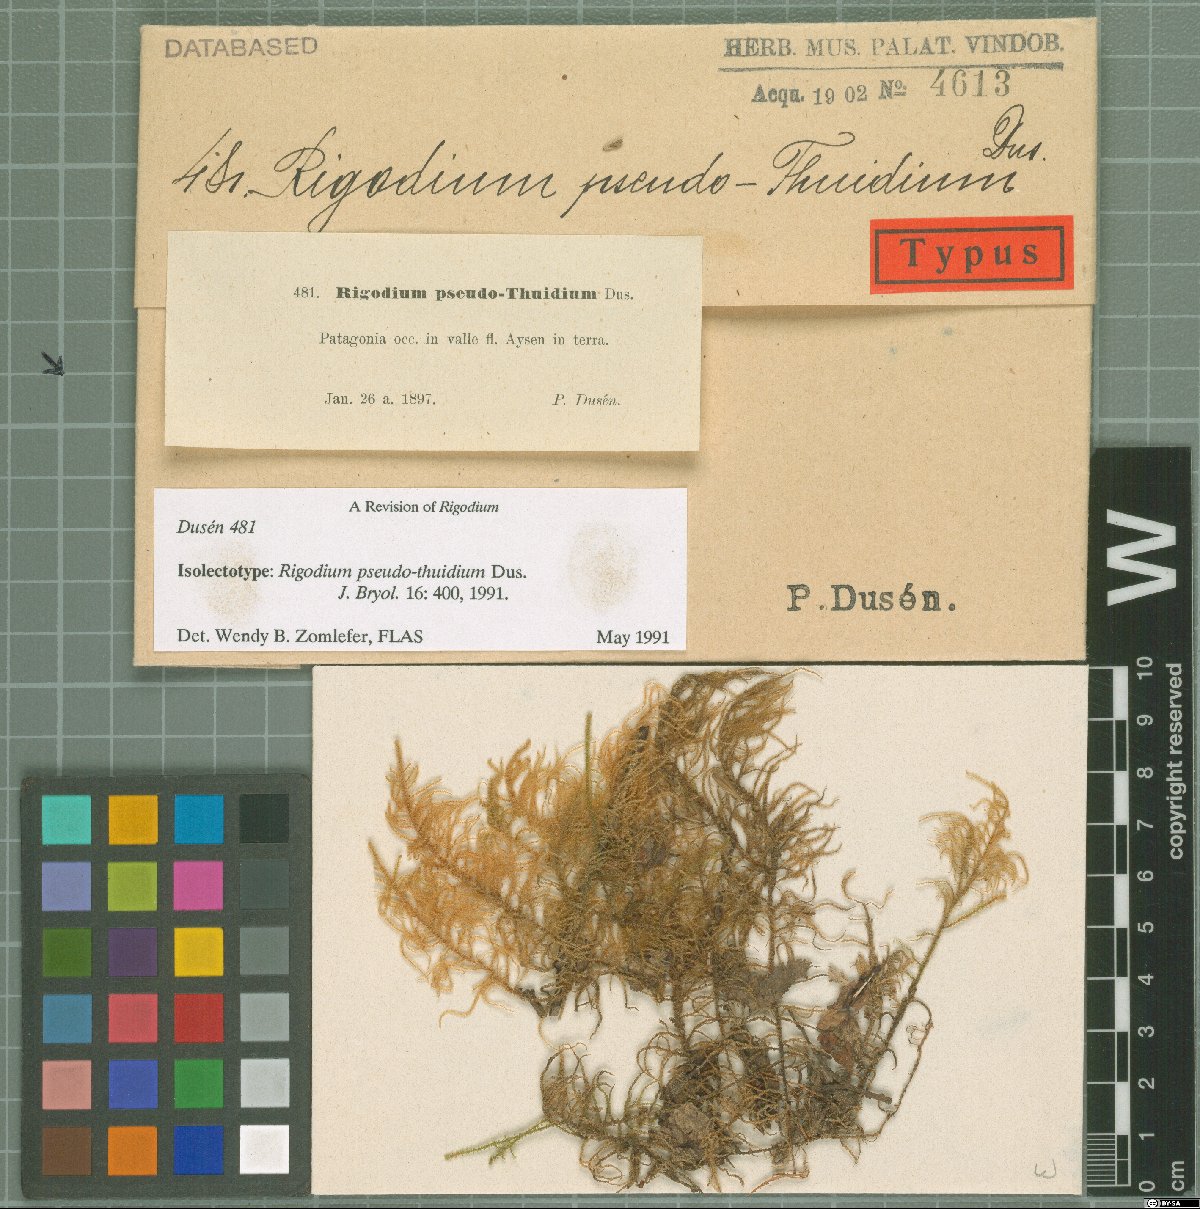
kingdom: Plantae
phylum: Bryophyta
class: Bryopsida
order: Hypnales
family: Lembophyllaceae
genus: Rigodium
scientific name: Rigodium pseudothuidium
